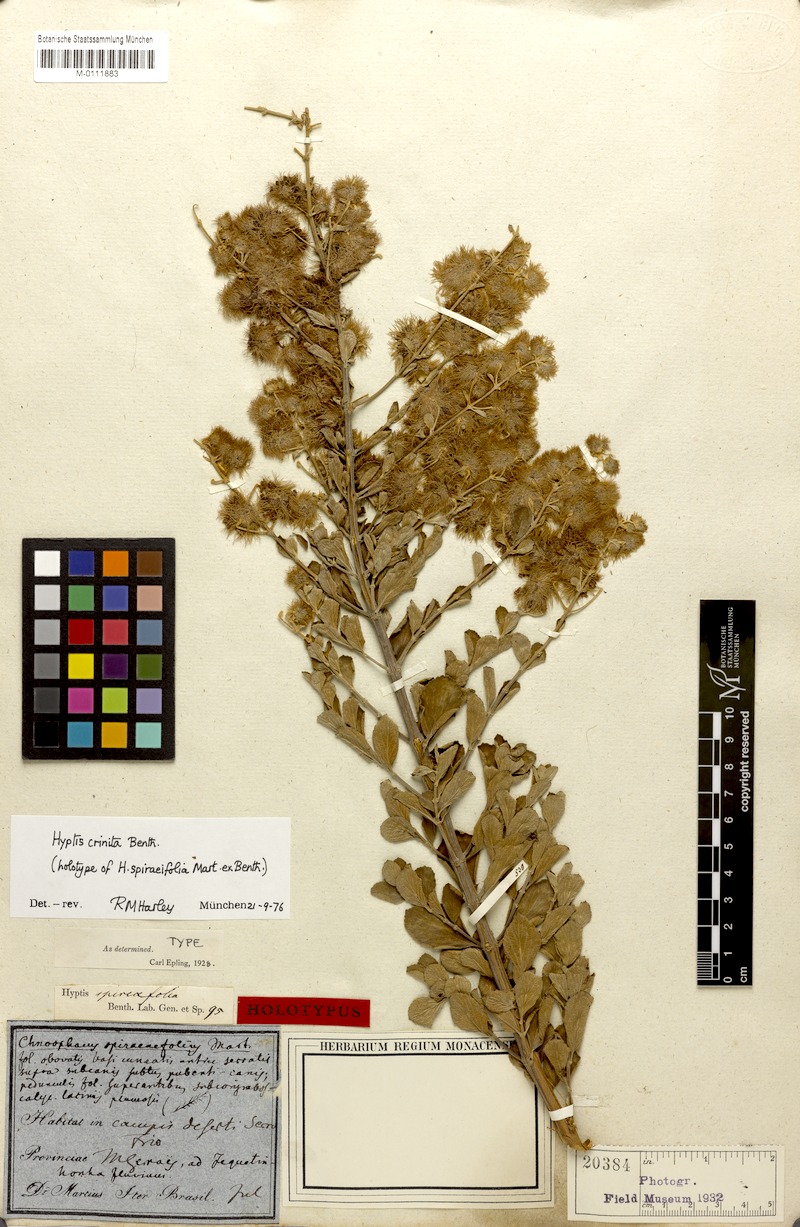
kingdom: Plantae
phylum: Tracheophyta
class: Magnoliopsida
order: Lamiales
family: Lamiaceae
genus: Medusantha
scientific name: Medusantha crinita
